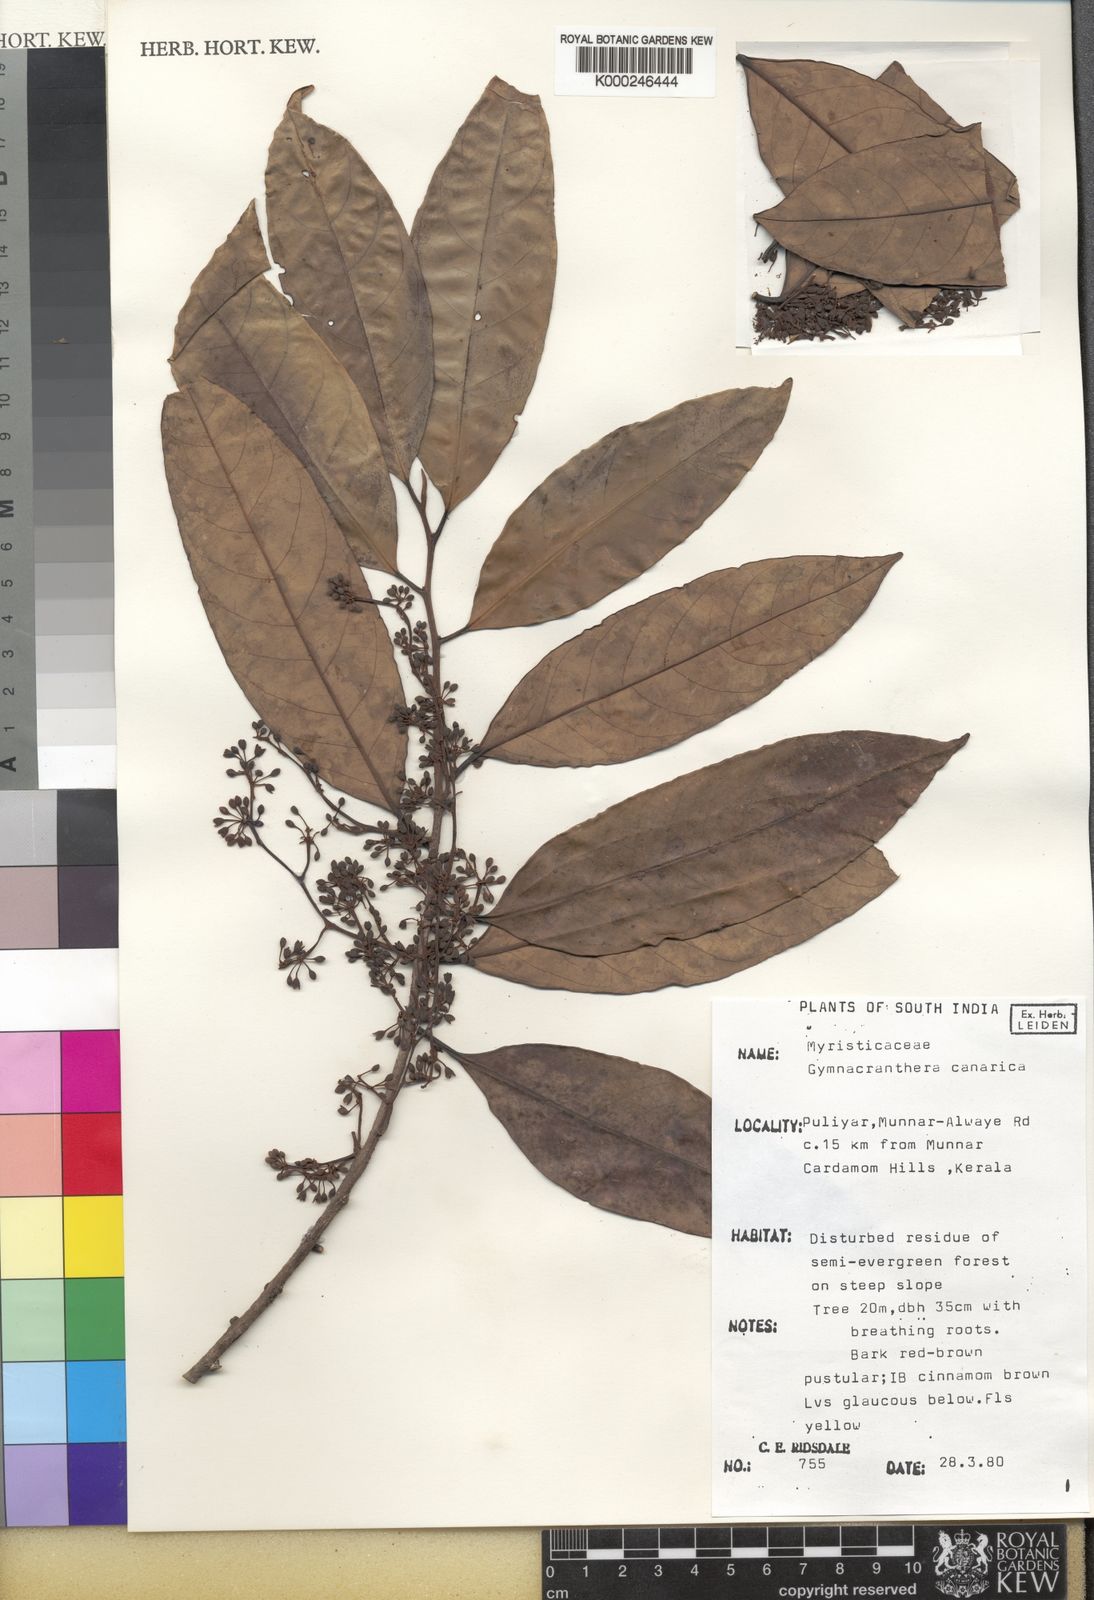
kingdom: Plantae
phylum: Tracheophyta
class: Magnoliopsida
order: Magnoliales
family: Myristicaceae
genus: Gymnacranthera
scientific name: Gymnacranthera canarica
